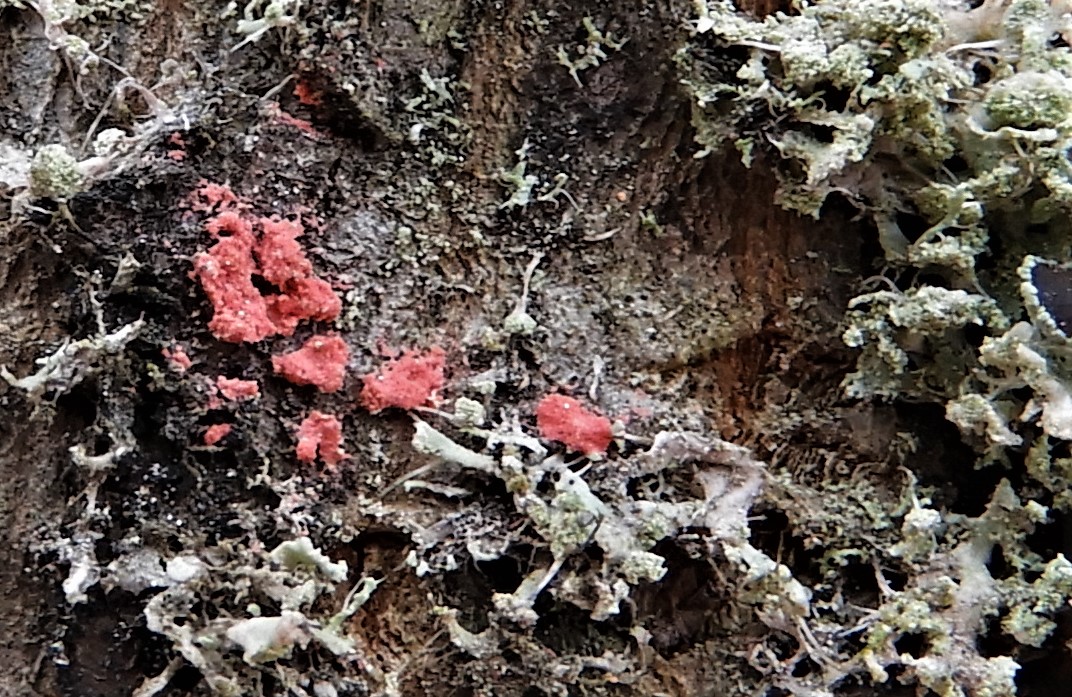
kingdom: Fungi
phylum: Ascomycota
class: Sordariomycetes
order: Hypocreales
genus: Illosporiopsis
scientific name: Illosporiopsis christiansenii
